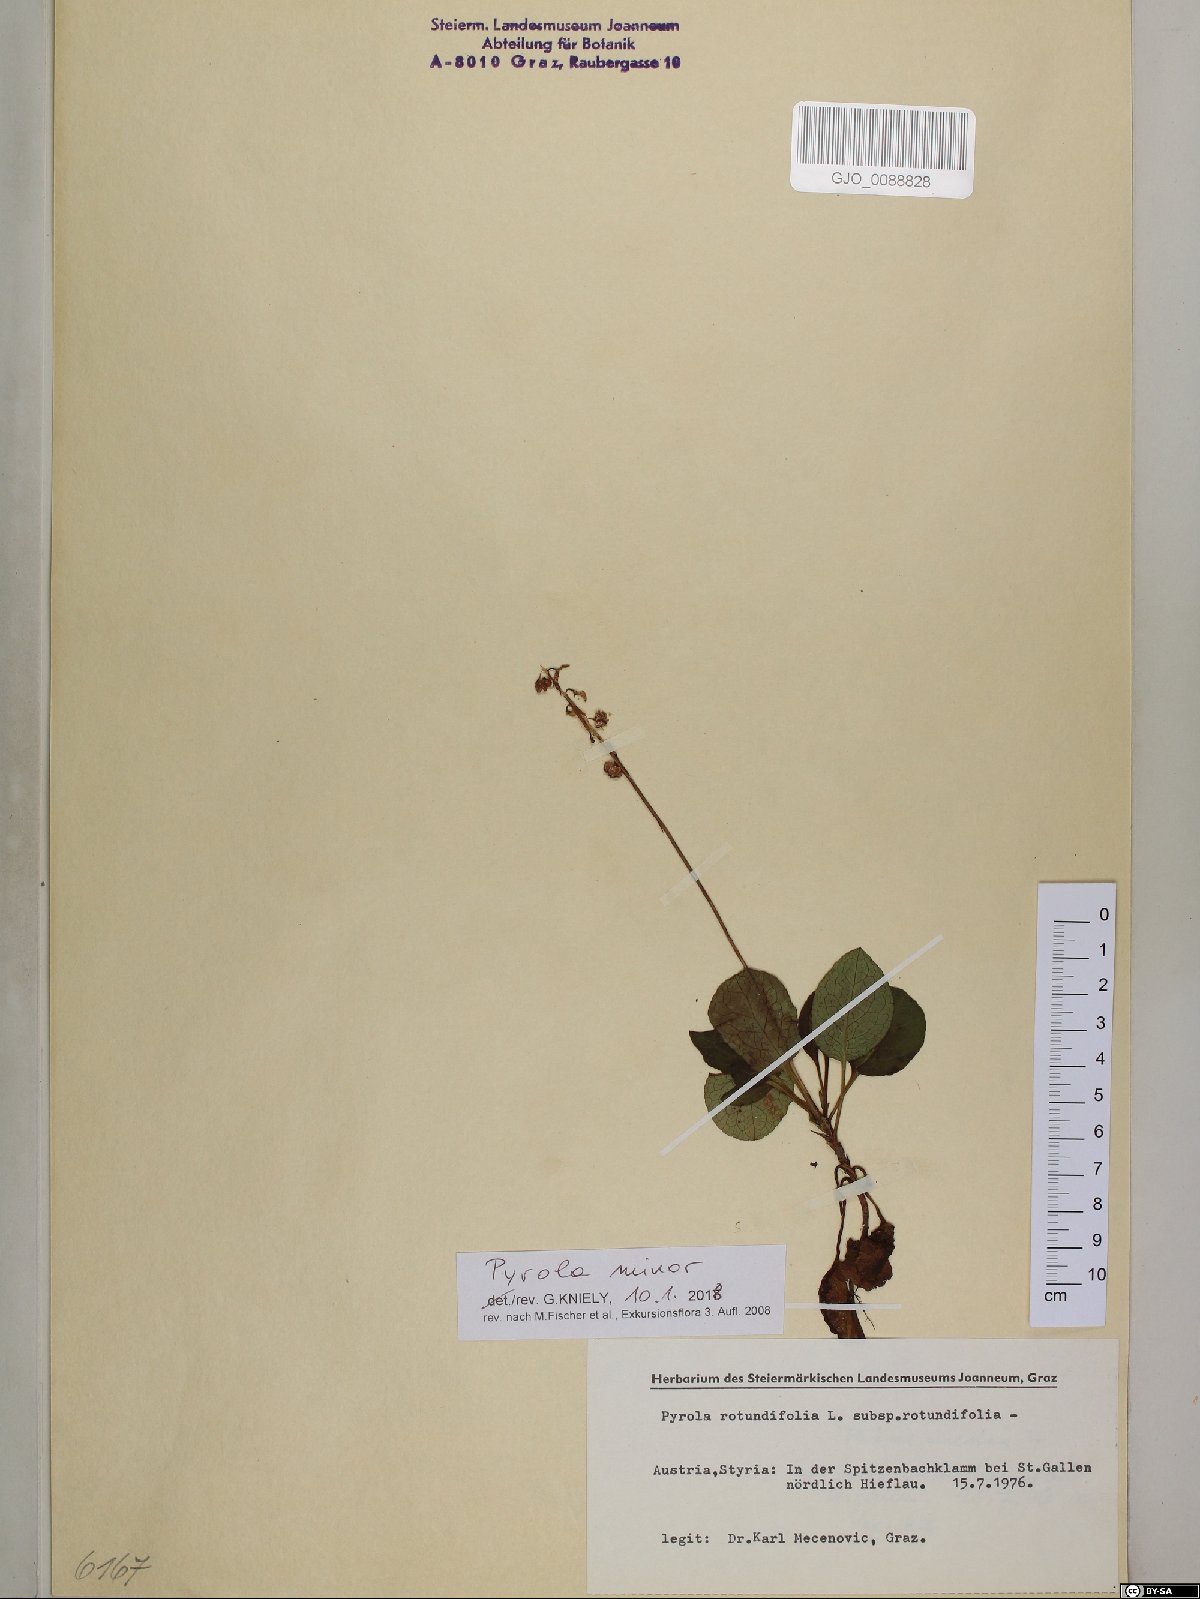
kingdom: Plantae
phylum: Tracheophyta
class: Magnoliopsida
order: Ericales
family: Ericaceae
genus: Pyrola
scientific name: Pyrola minor
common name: Common wintergreen
